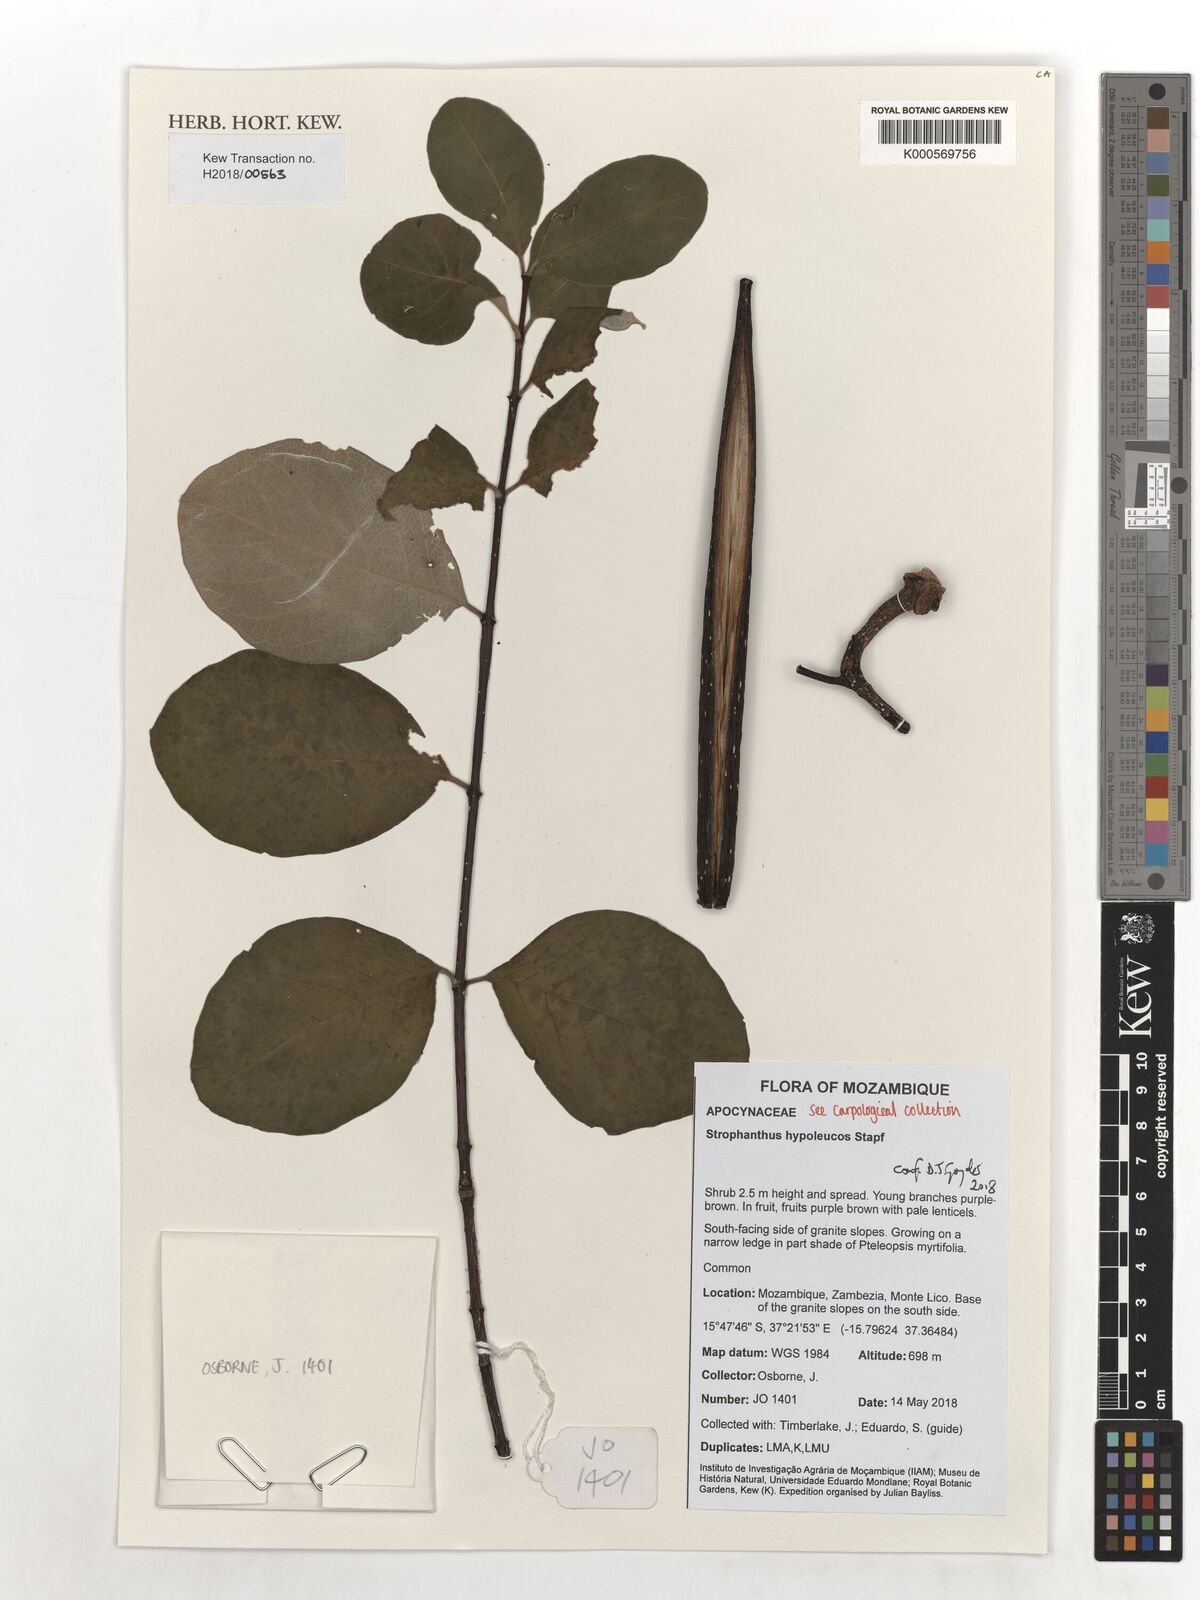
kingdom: Plantae
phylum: Tracheophyta
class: Magnoliopsida
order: Gentianales
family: Apocynaceae
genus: Strophanthus
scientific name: Strophanthus hypoleucos
